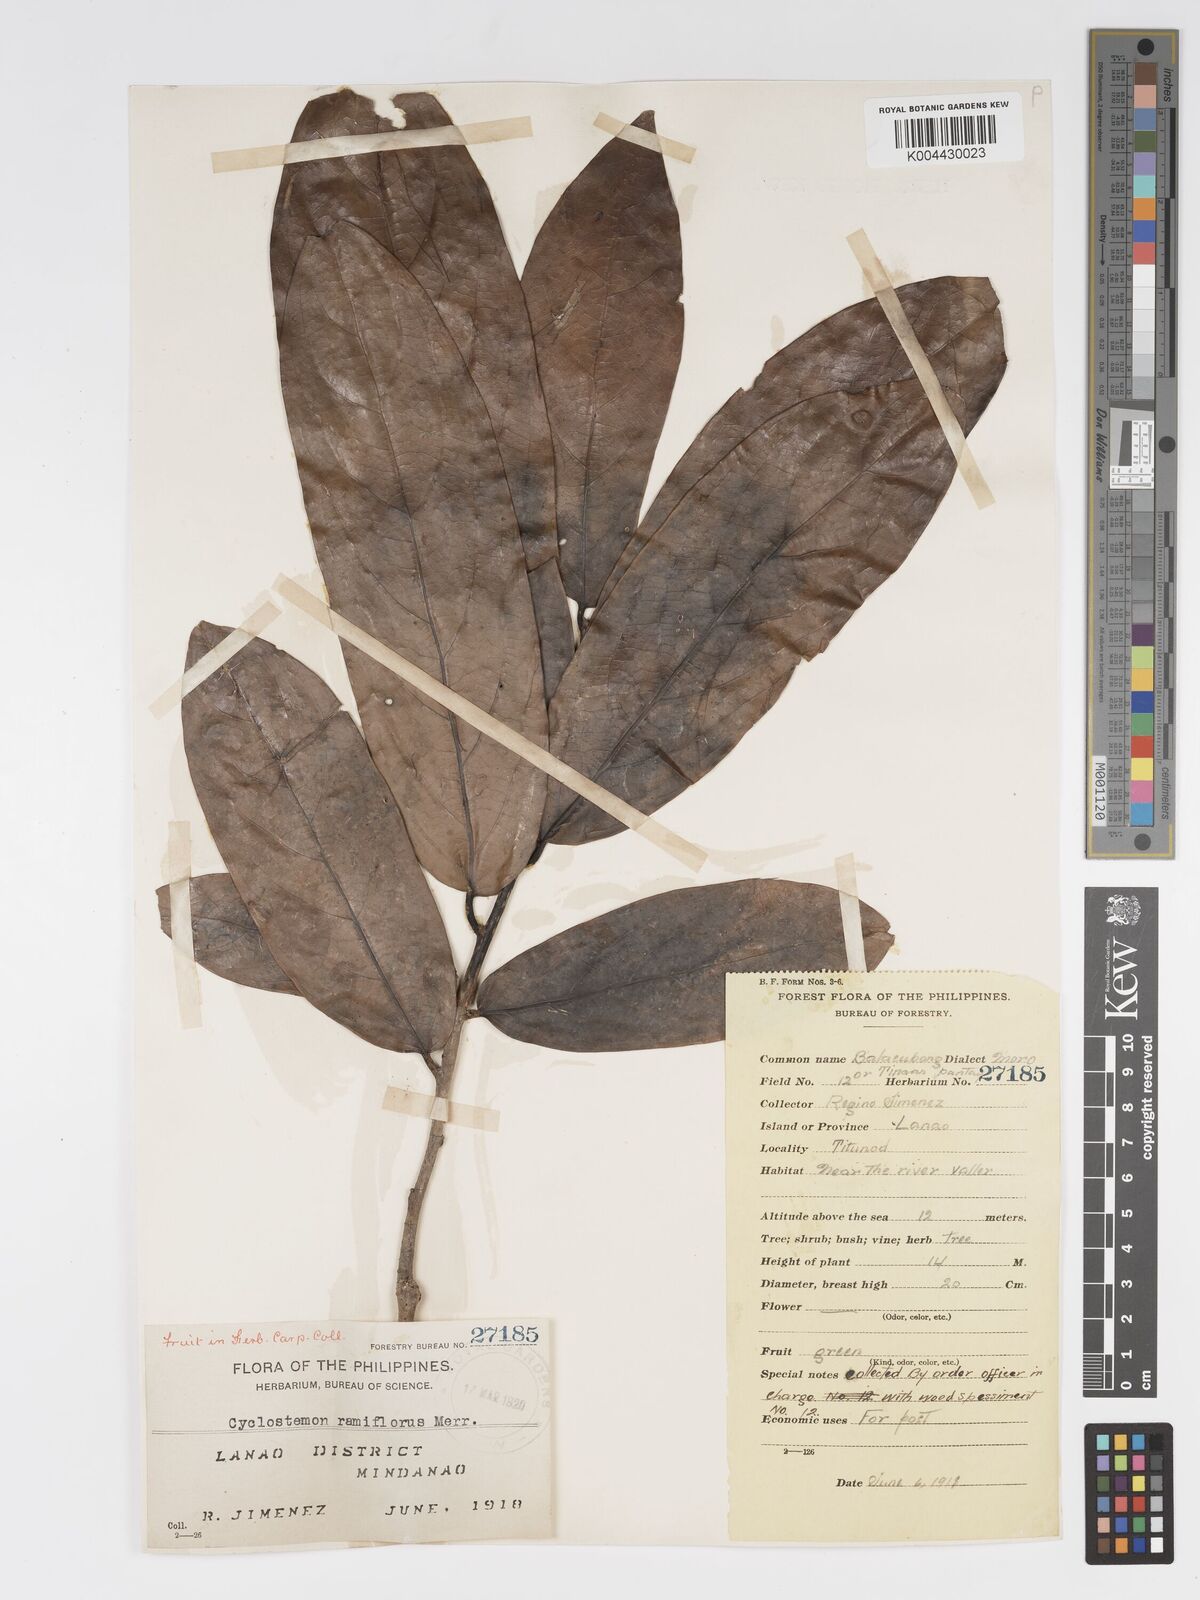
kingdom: Plantae
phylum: Tracheophyta
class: Magnoliopsida
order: Malpighiales
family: Putranjivaceae
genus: Drypetes
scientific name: Drypetes grandifolia
